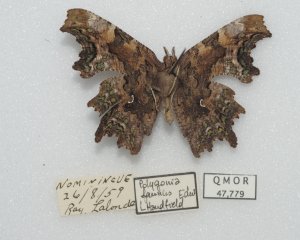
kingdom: Animalia
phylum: Arthropoda
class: Insecta
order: Lepidoptera
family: Nymphalidae
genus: Polygonia
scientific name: Polygonia faunus
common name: Green Comma
